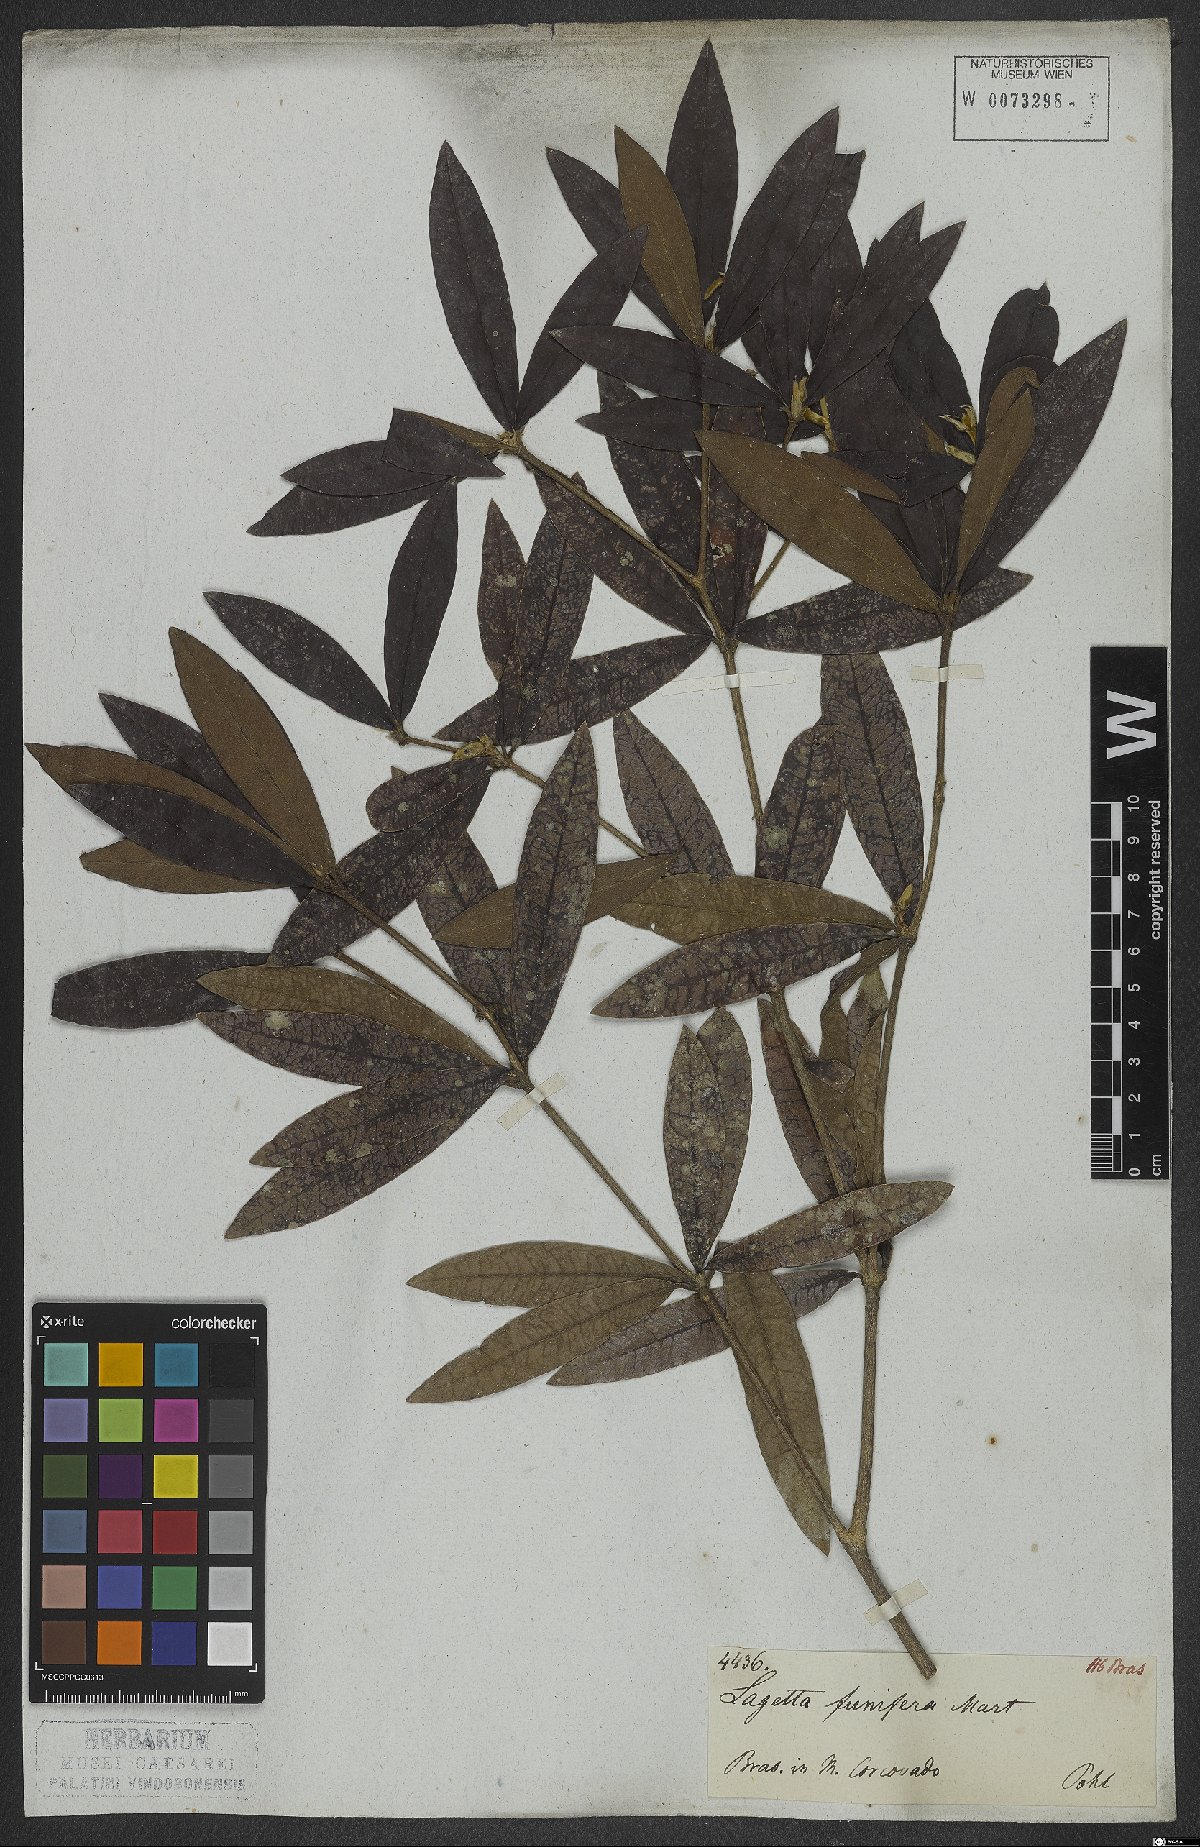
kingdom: Plantae
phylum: Tracheophyta
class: Magnoliopsida
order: Malvales
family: Thymelaeaceae
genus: Funifera
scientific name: Funifera brasiliensis
